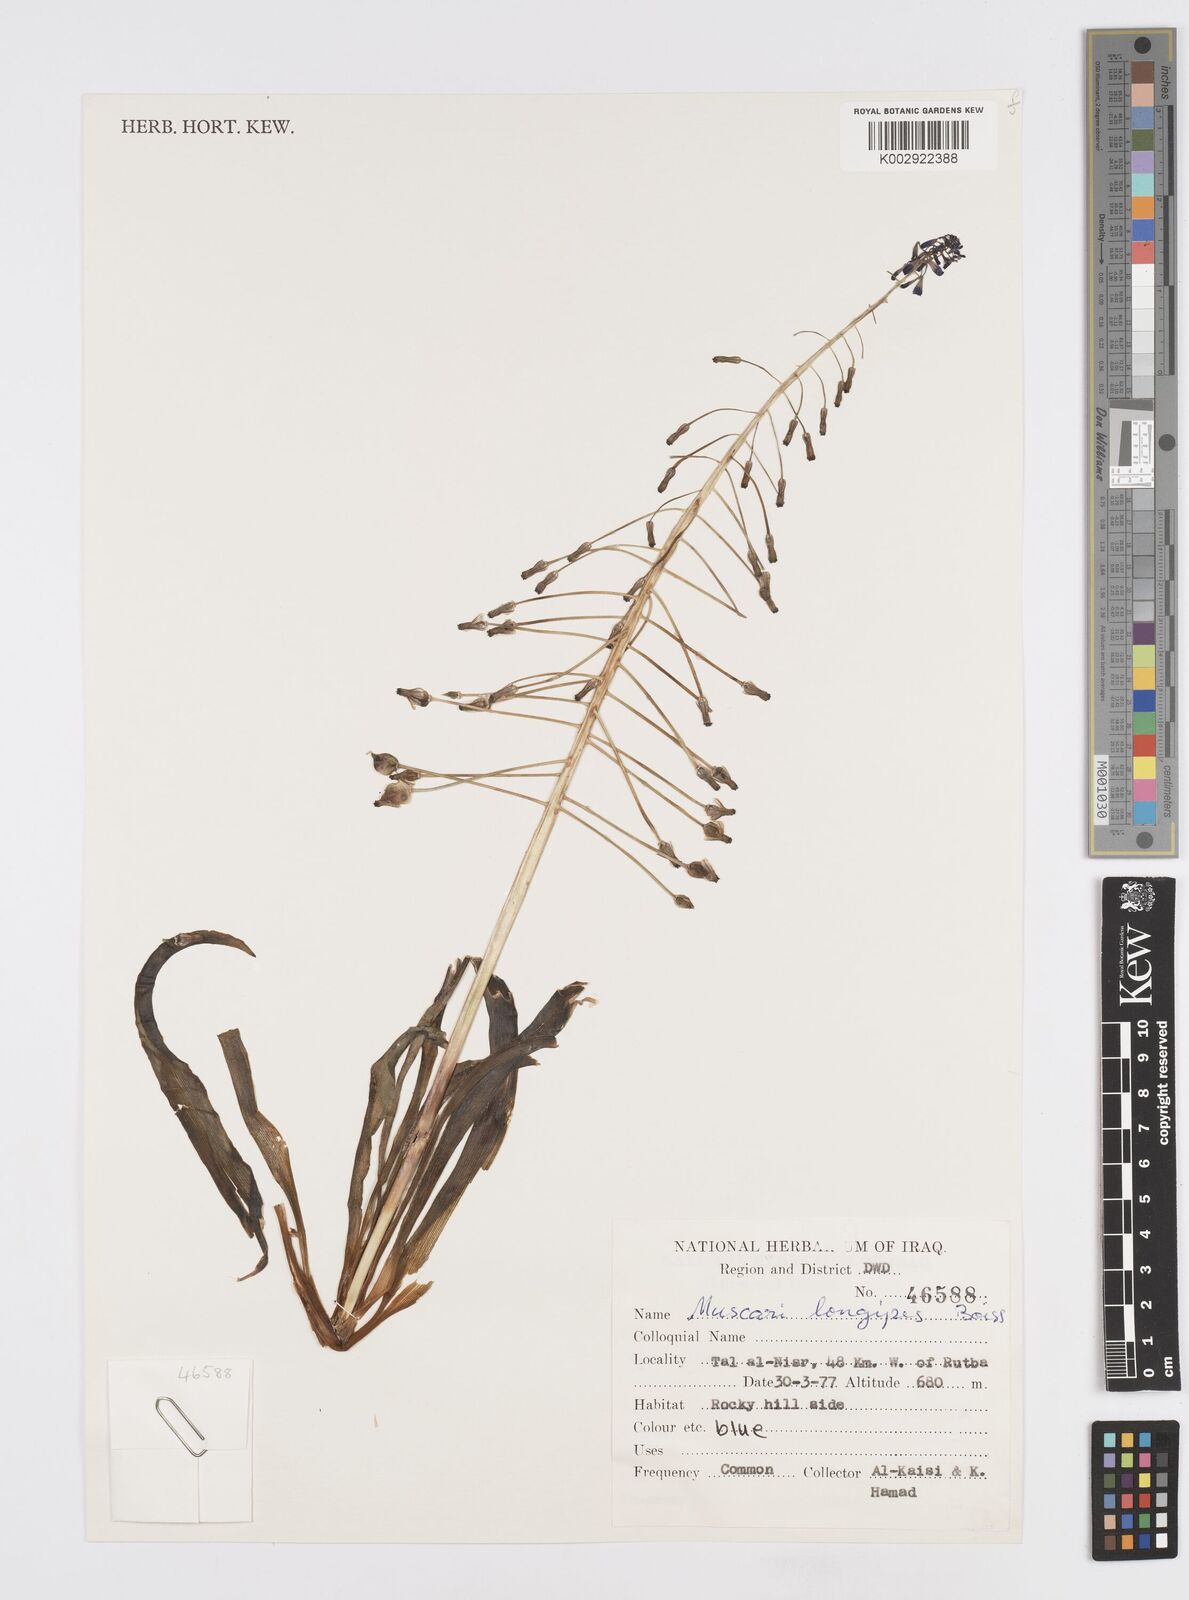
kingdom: Plantae
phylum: Tracheophyta
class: Liliopsida
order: Asparagales
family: Asparagaceae
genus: Muscari
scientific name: Muscari longipes
